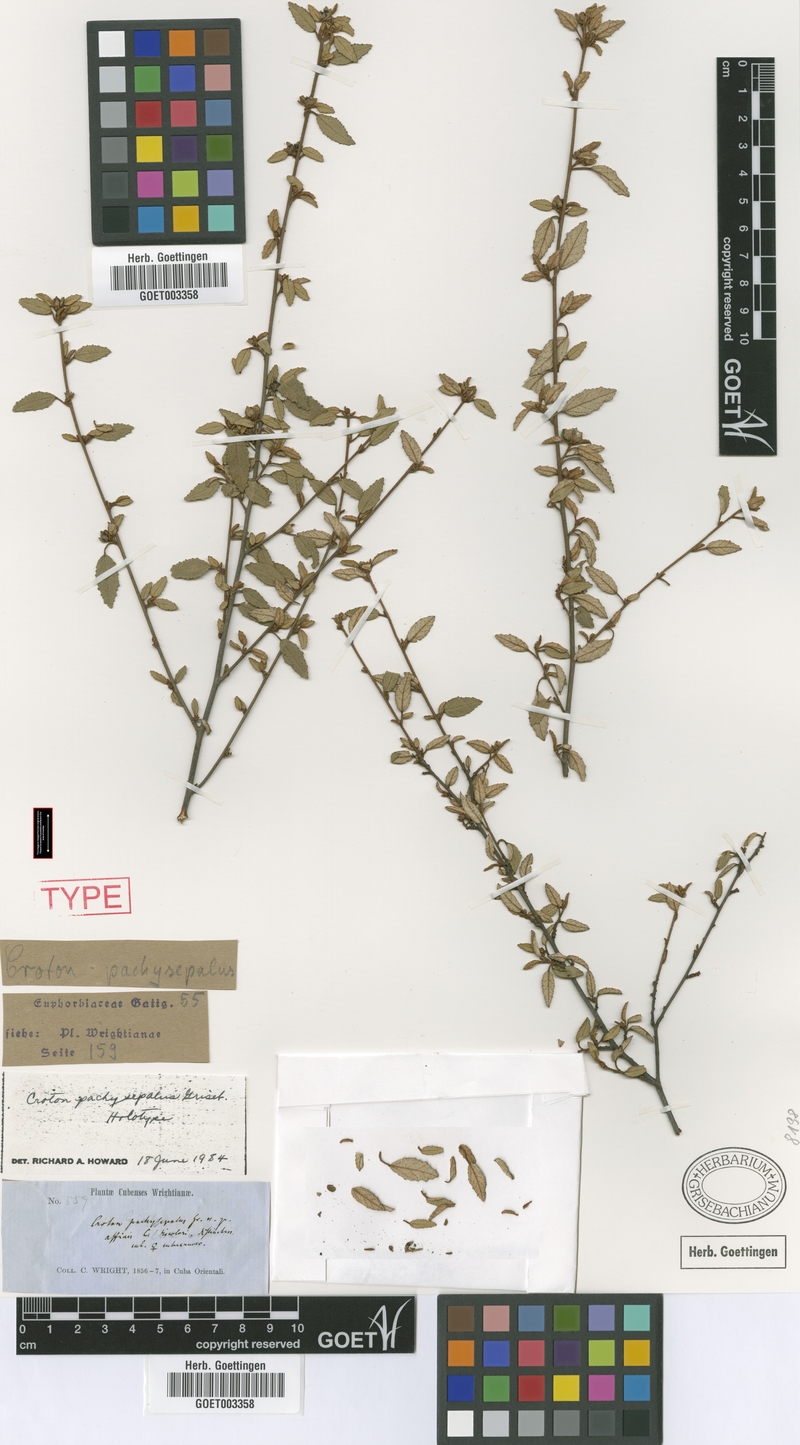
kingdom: Plantae
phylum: Tracheophyta
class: Magnoliopsida
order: Malpighiales
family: Euphorbiaceae
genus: Croton
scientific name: Croton pachysepalus
